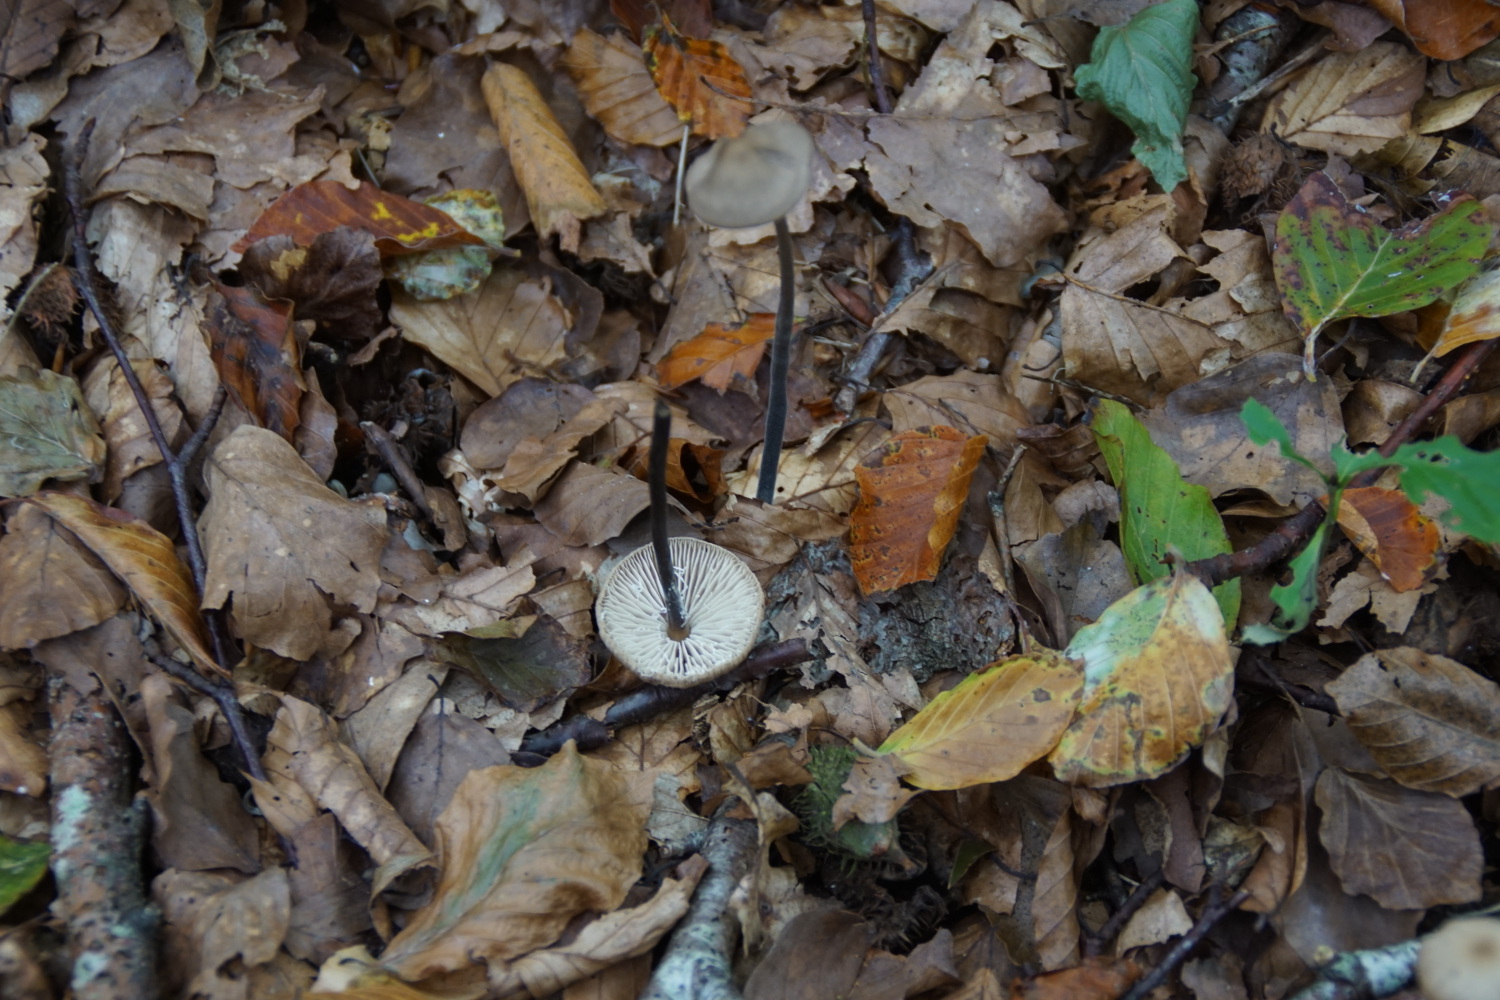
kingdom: Fungi
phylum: Basidiomycota
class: Agaricomycetes
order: Agaricales
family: Omphalotaceae
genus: Mycetinis
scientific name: Mycetinis alliaceus
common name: stor løghat
